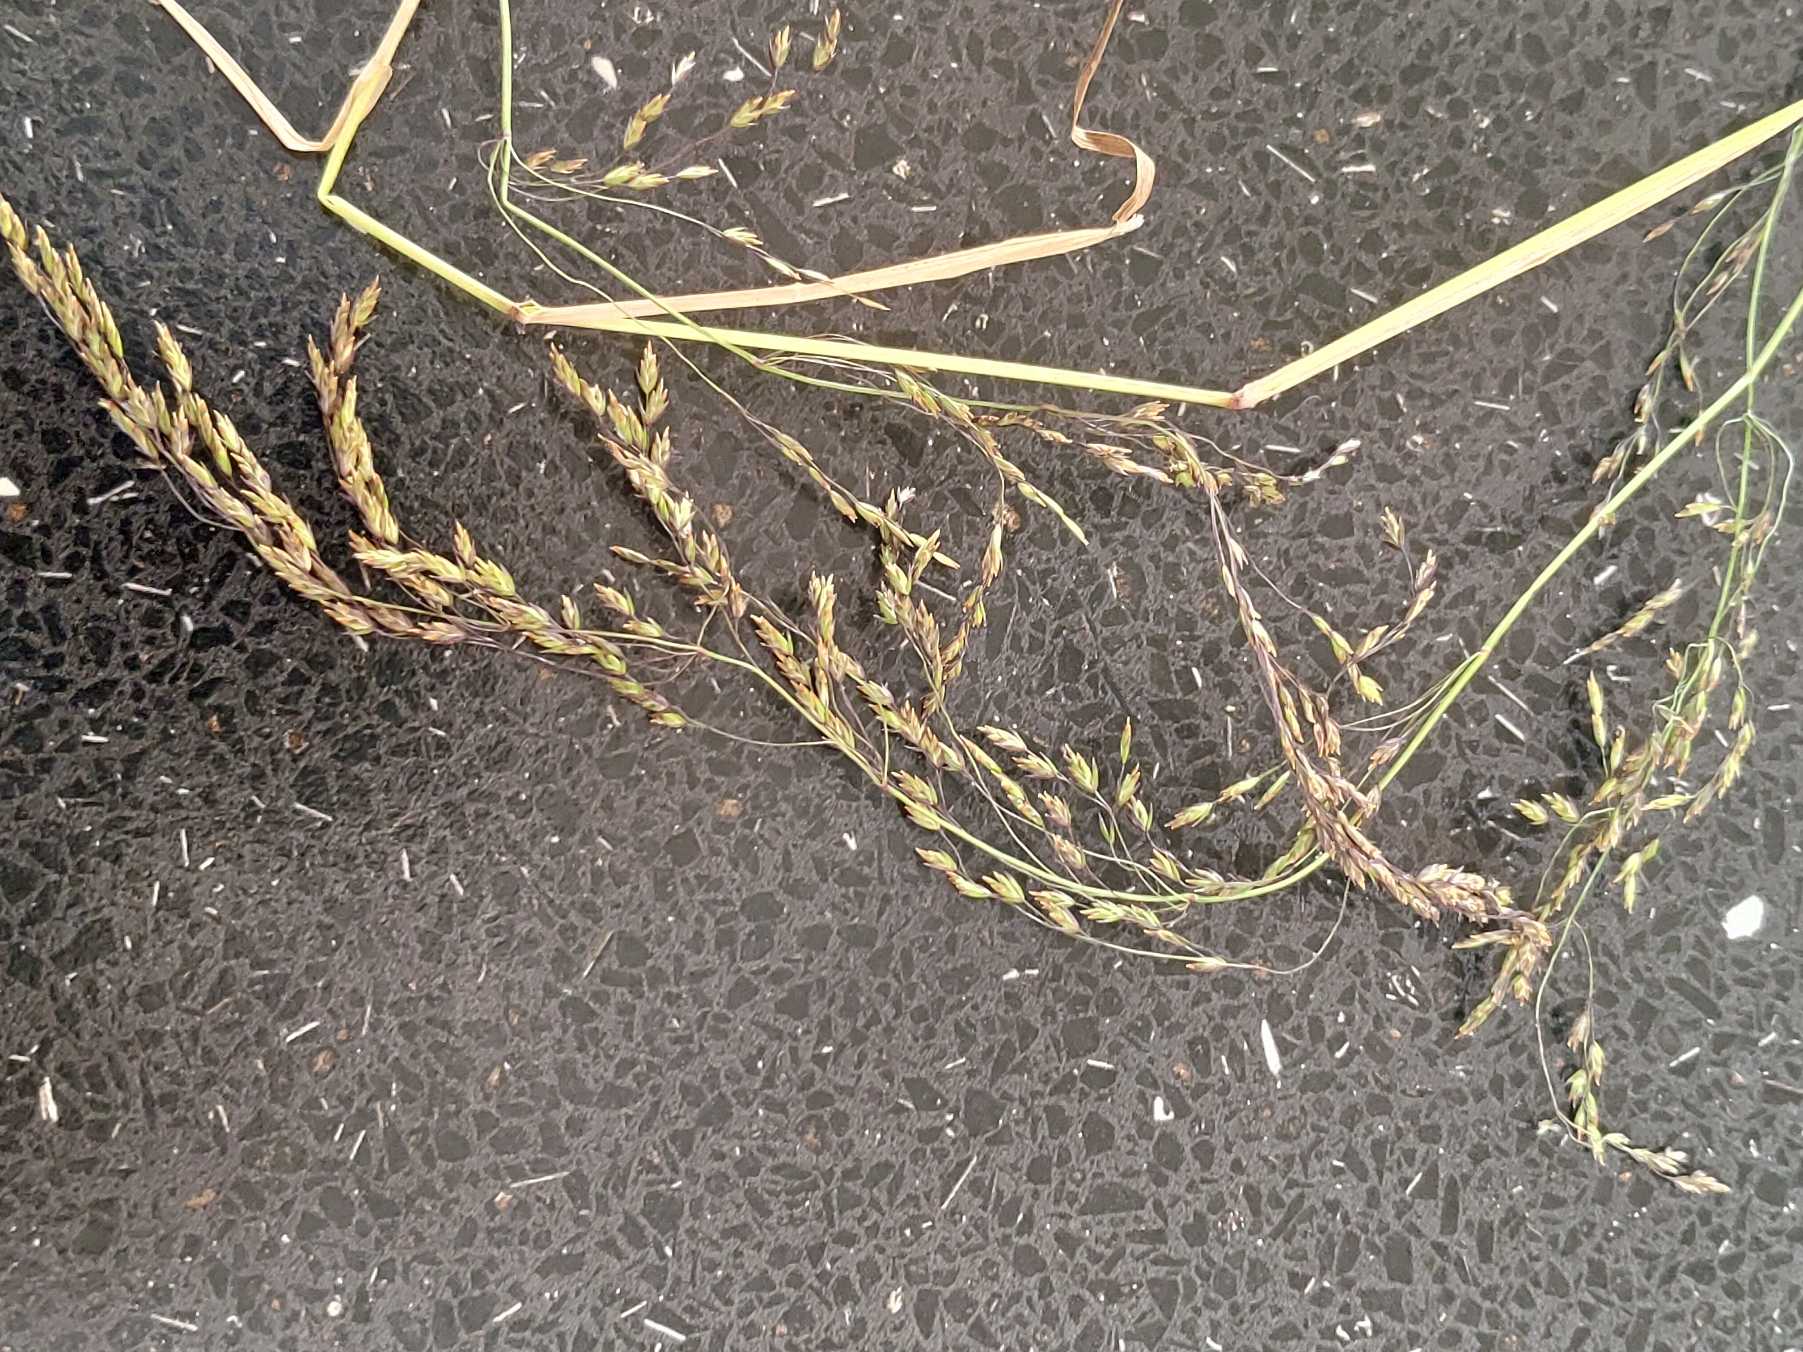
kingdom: Plantae
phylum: Tracheophyta
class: Liliopsida
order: Poales
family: Poaceae
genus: Poa
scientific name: Poa palustris
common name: Stortoppet rapgræs
